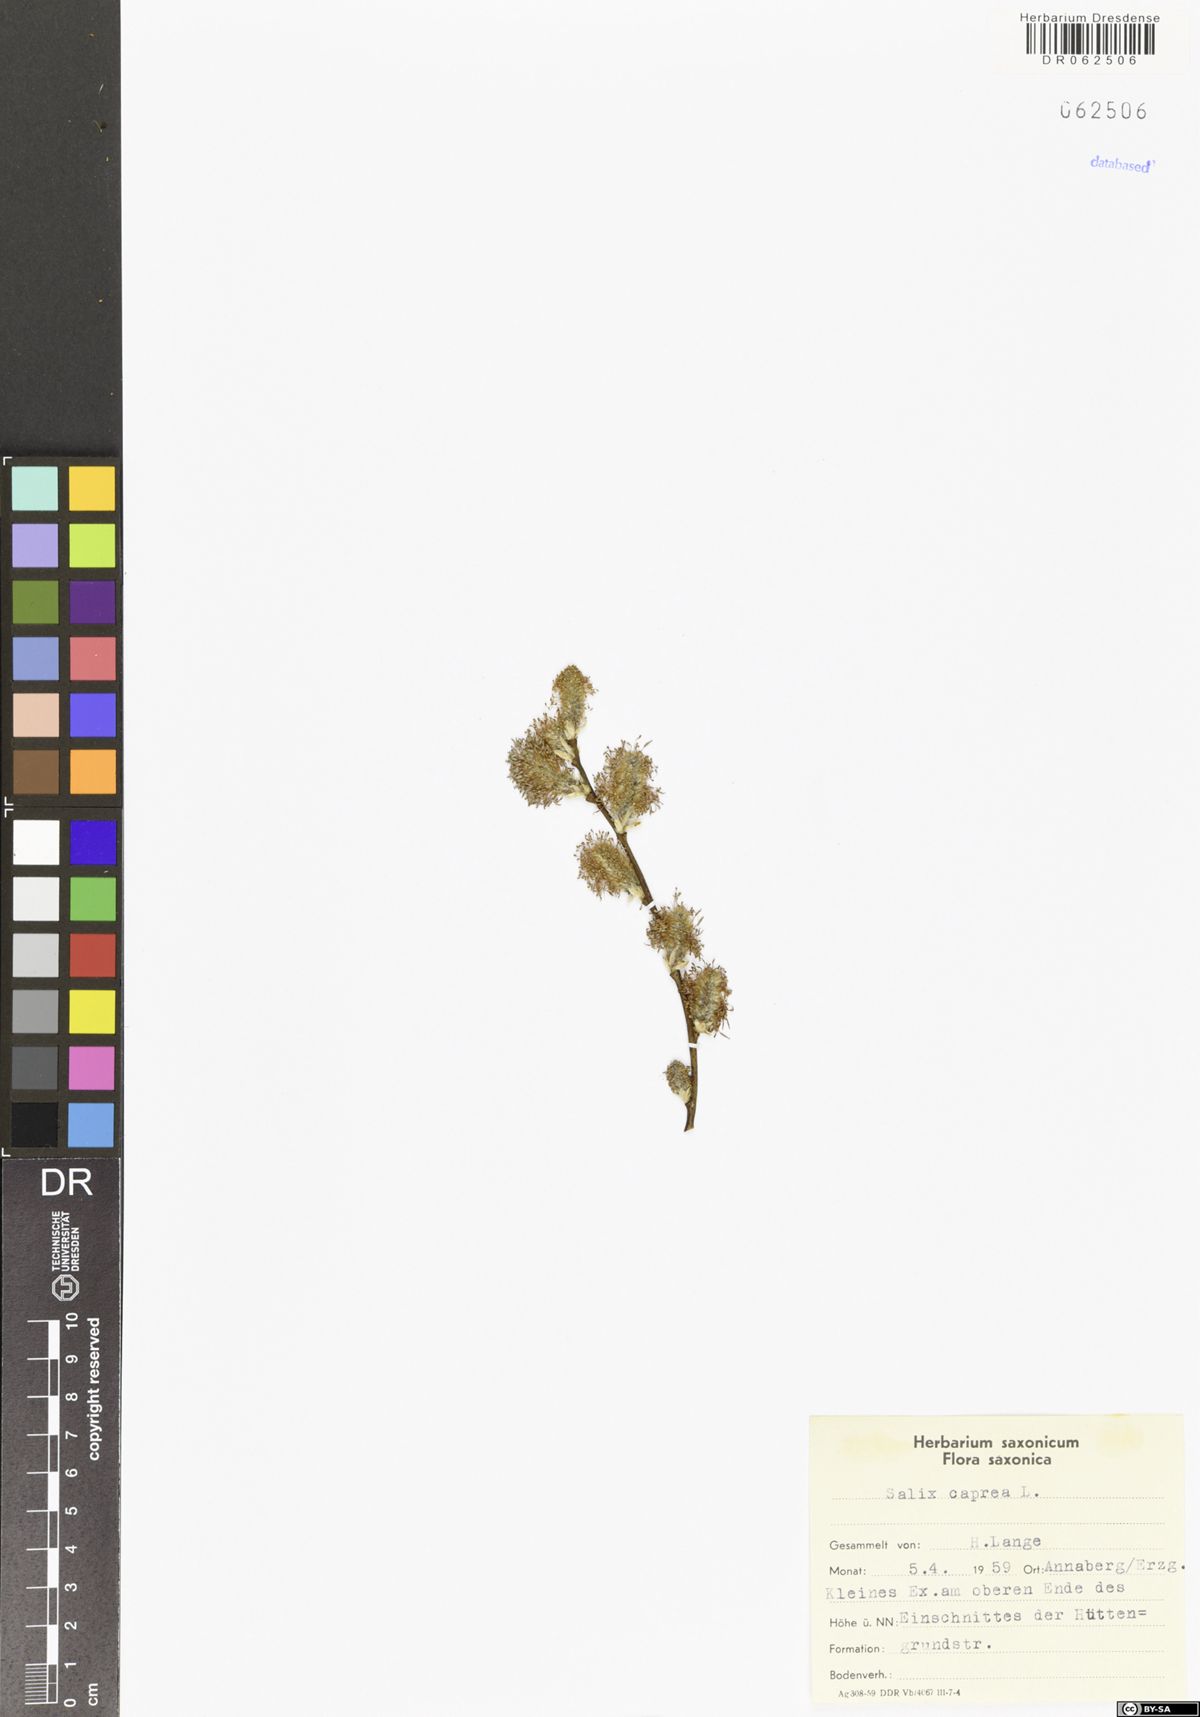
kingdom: Plantae
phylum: Tracheophyta
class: Magnoliopsida
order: Malpighiales
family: Salicaceae
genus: Salix
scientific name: Salix caprea
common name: Goat willow
